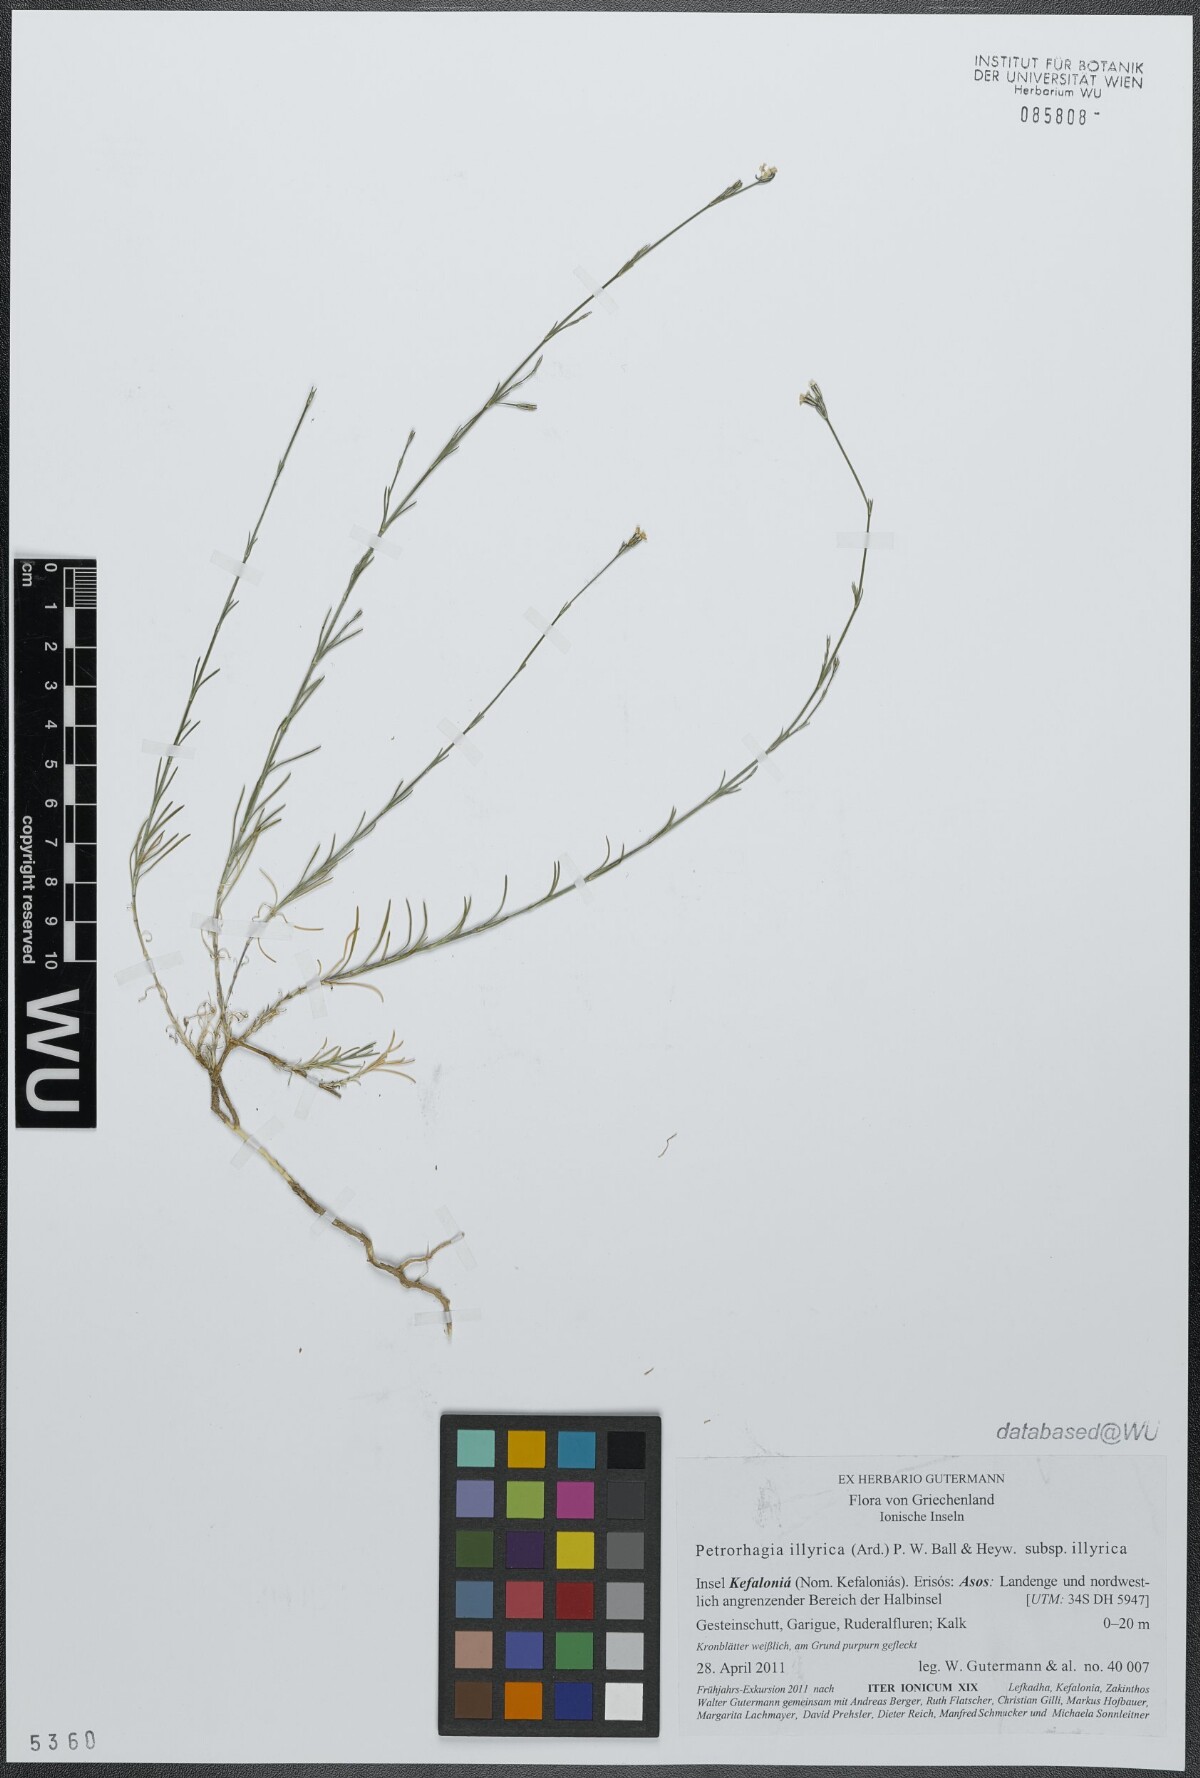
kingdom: Plantae
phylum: Tracheophyta
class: Magnoliopsida
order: Caryophyllales
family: Caryophyllaceae
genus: Dianthus
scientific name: Dianthus illyricus
